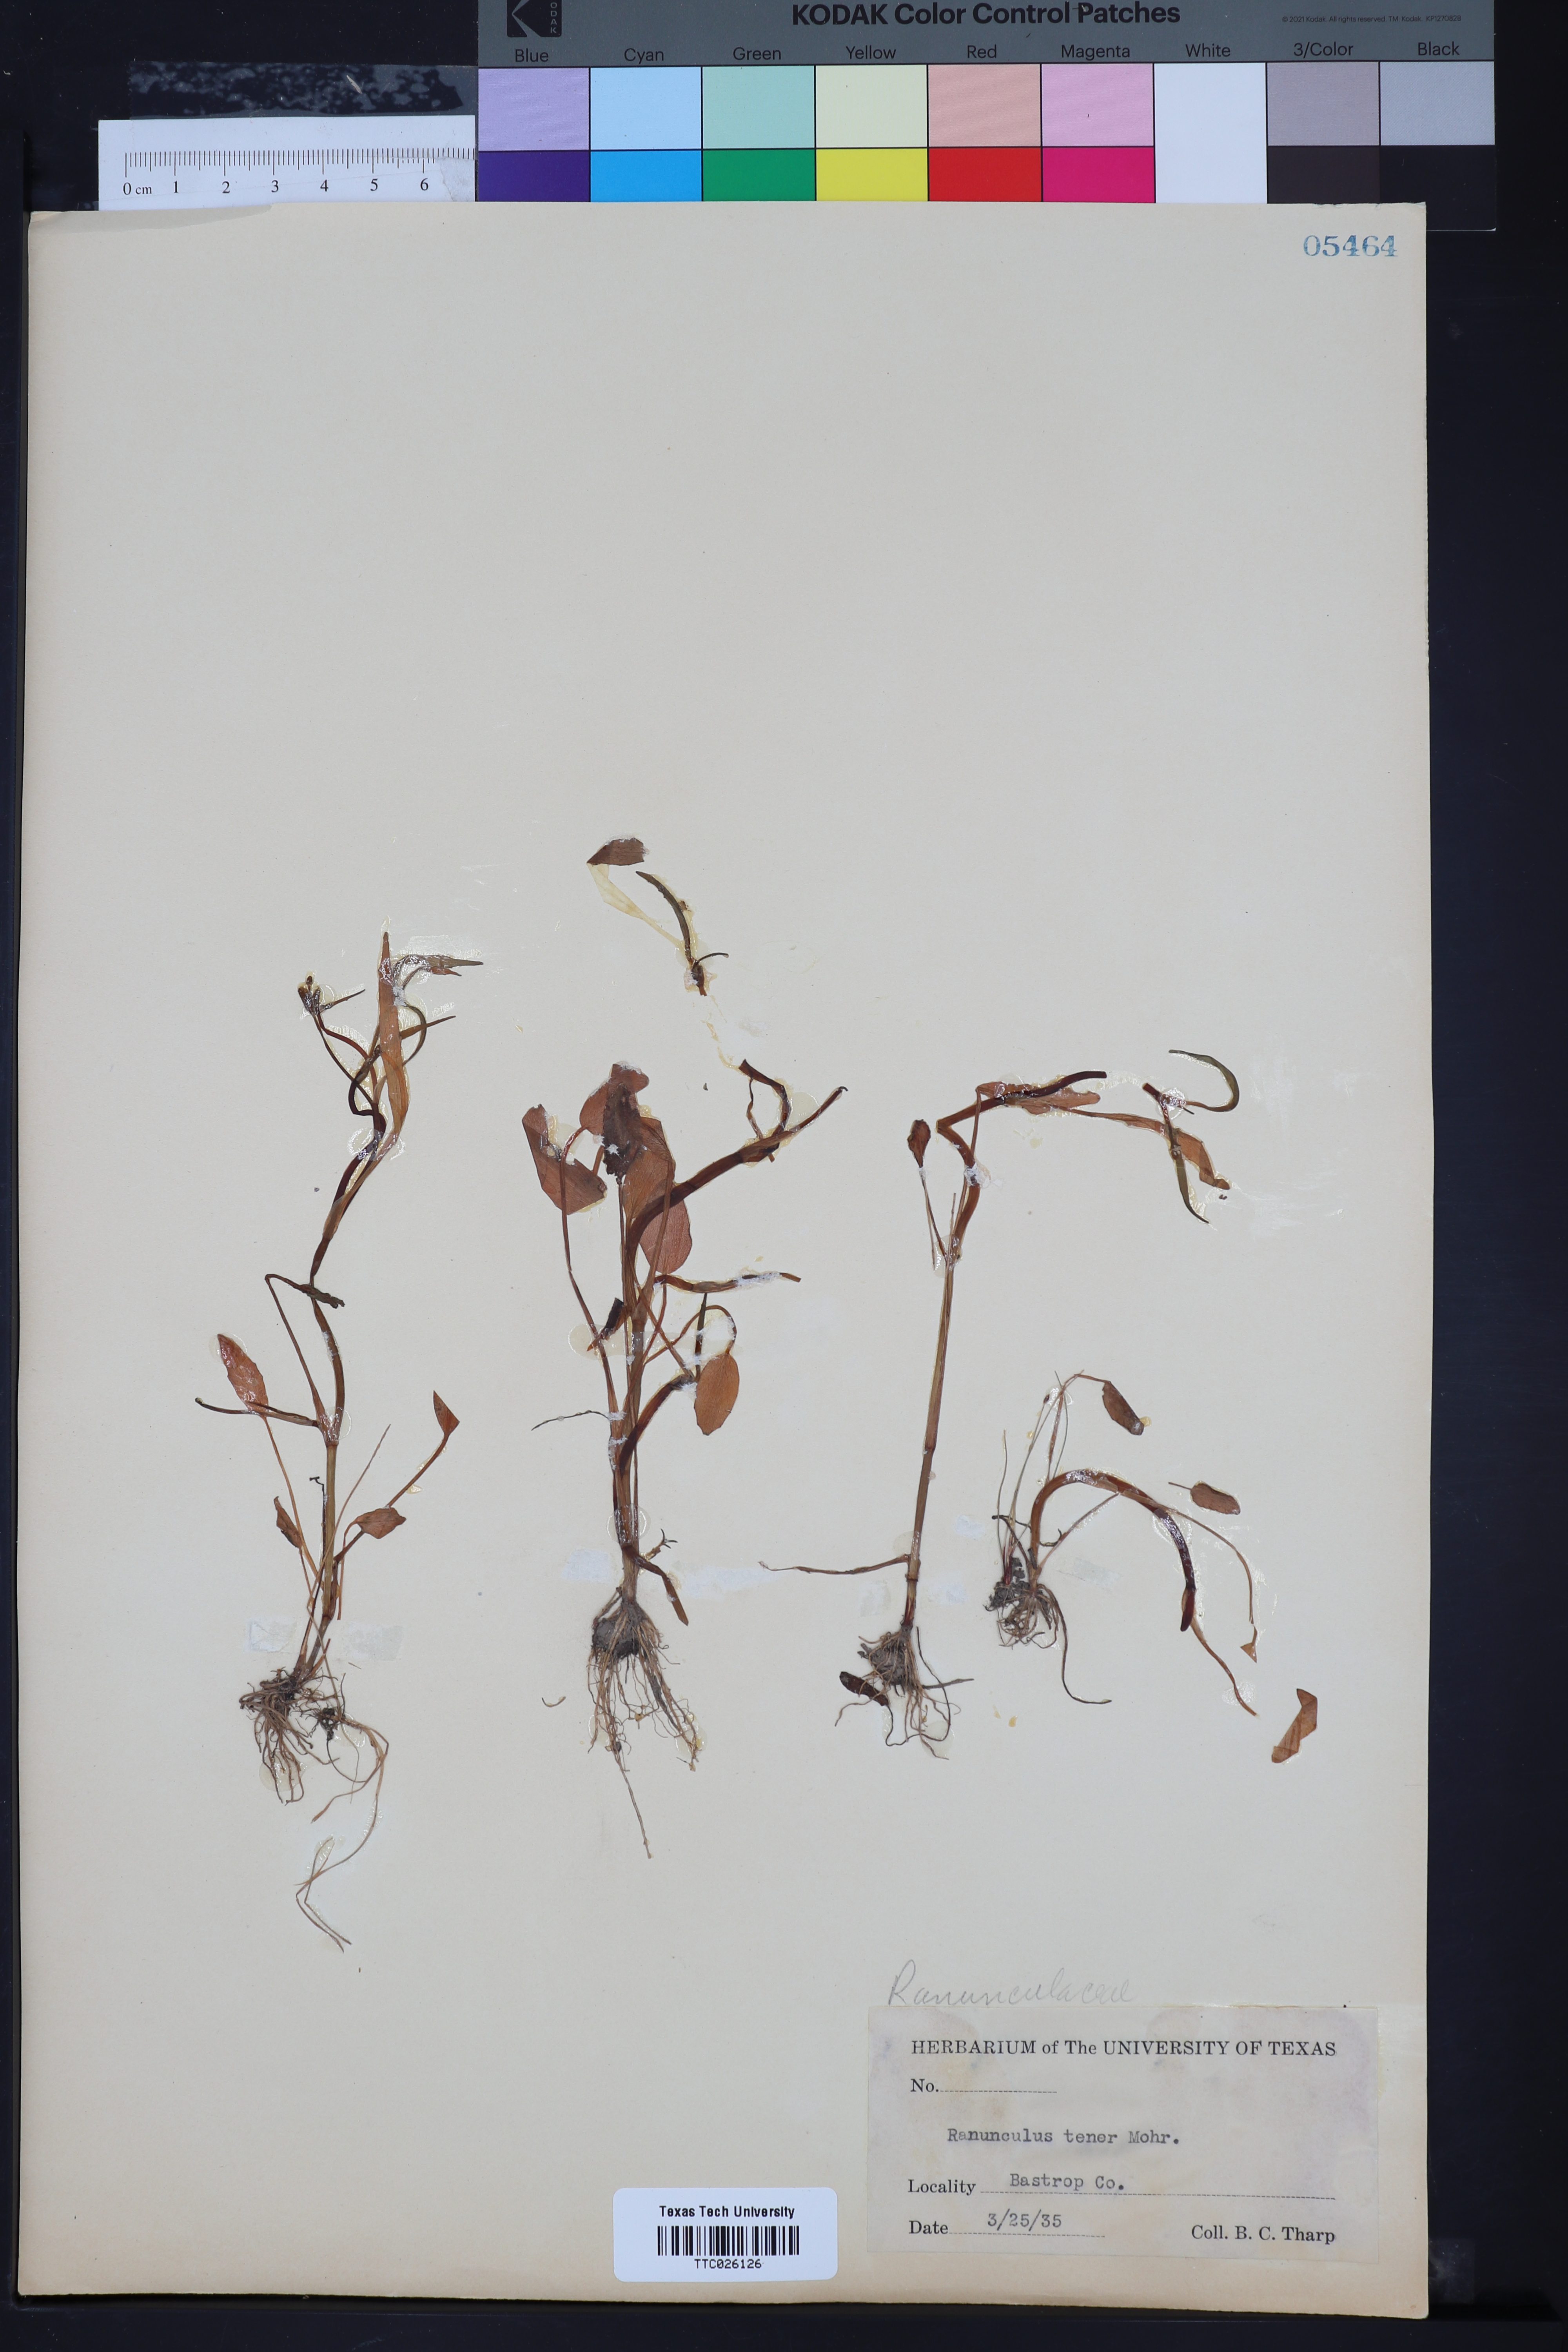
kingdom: Plantae
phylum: Tracheophyta
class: Magnoliopsida
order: Ranunculales
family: Ranunculaceae
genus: Ranunculus
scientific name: Ranunculus pusillus
